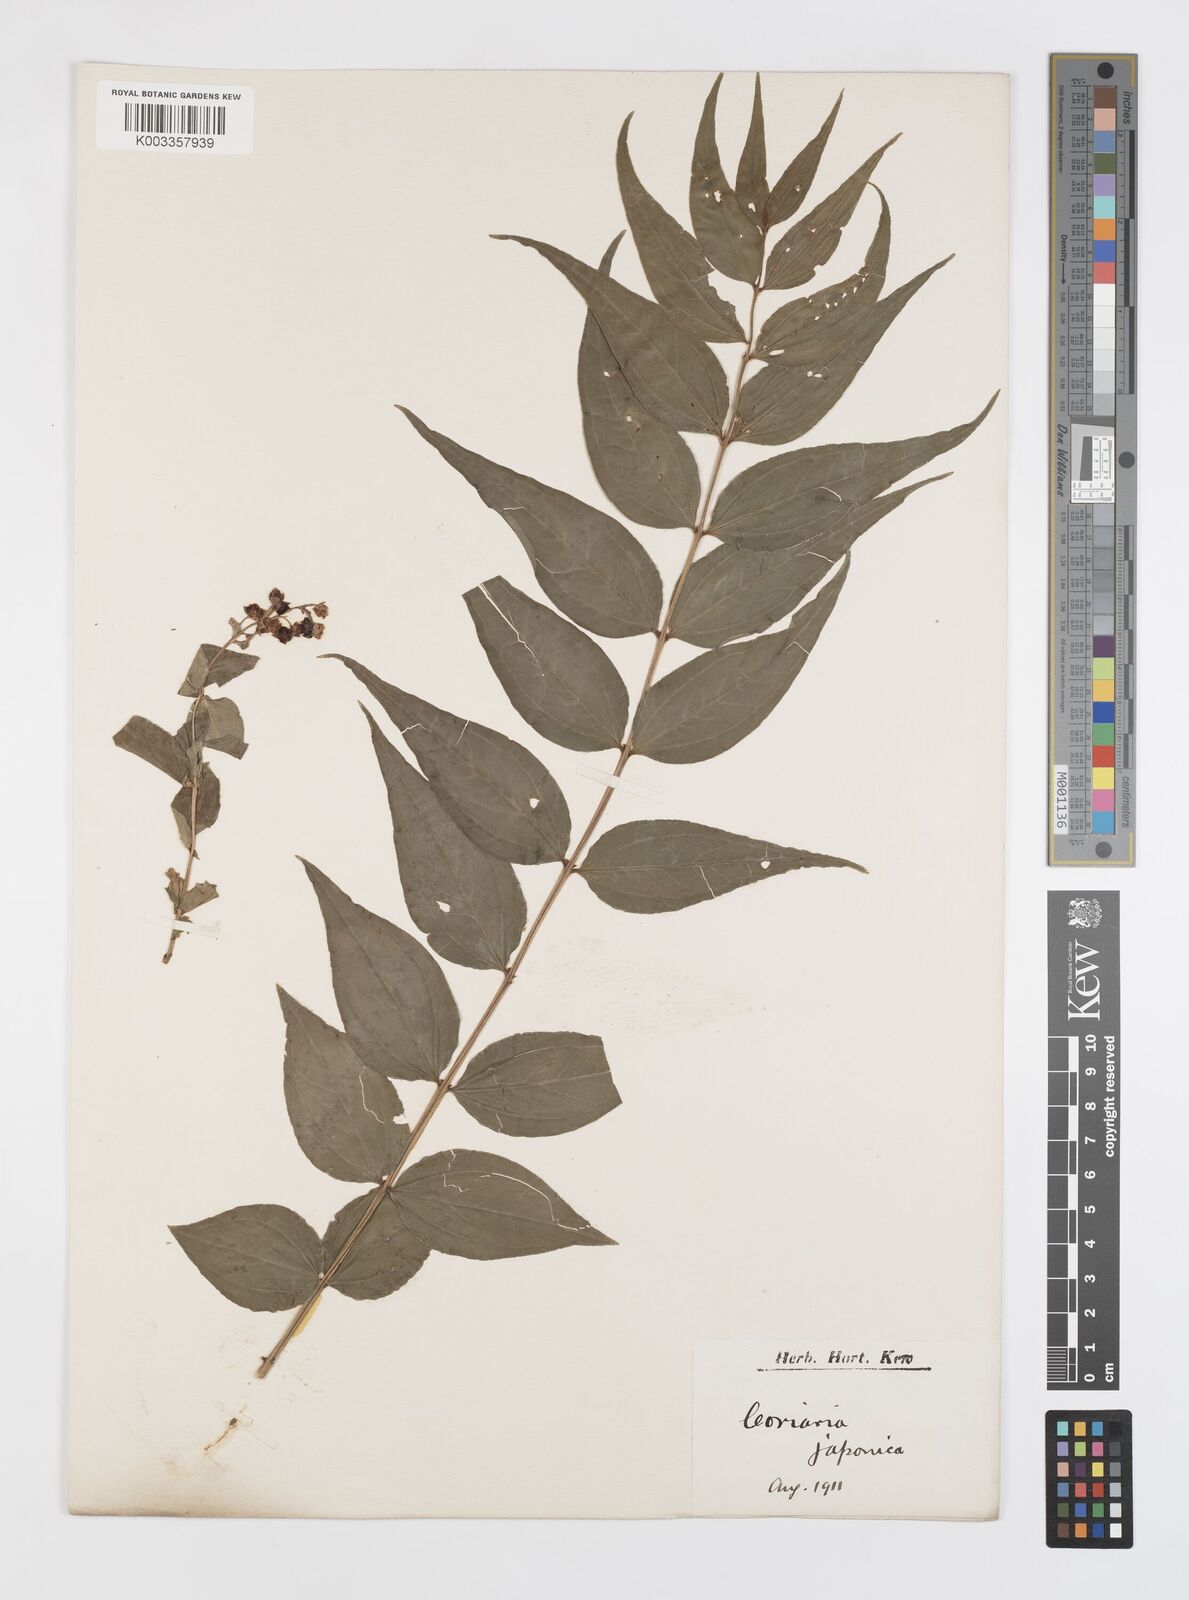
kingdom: Plantae
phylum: Tracheophyta
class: Magnoliopsida
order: Cucurbitales
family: Coriariaceae
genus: Coriaria
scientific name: Coriaria japonica
